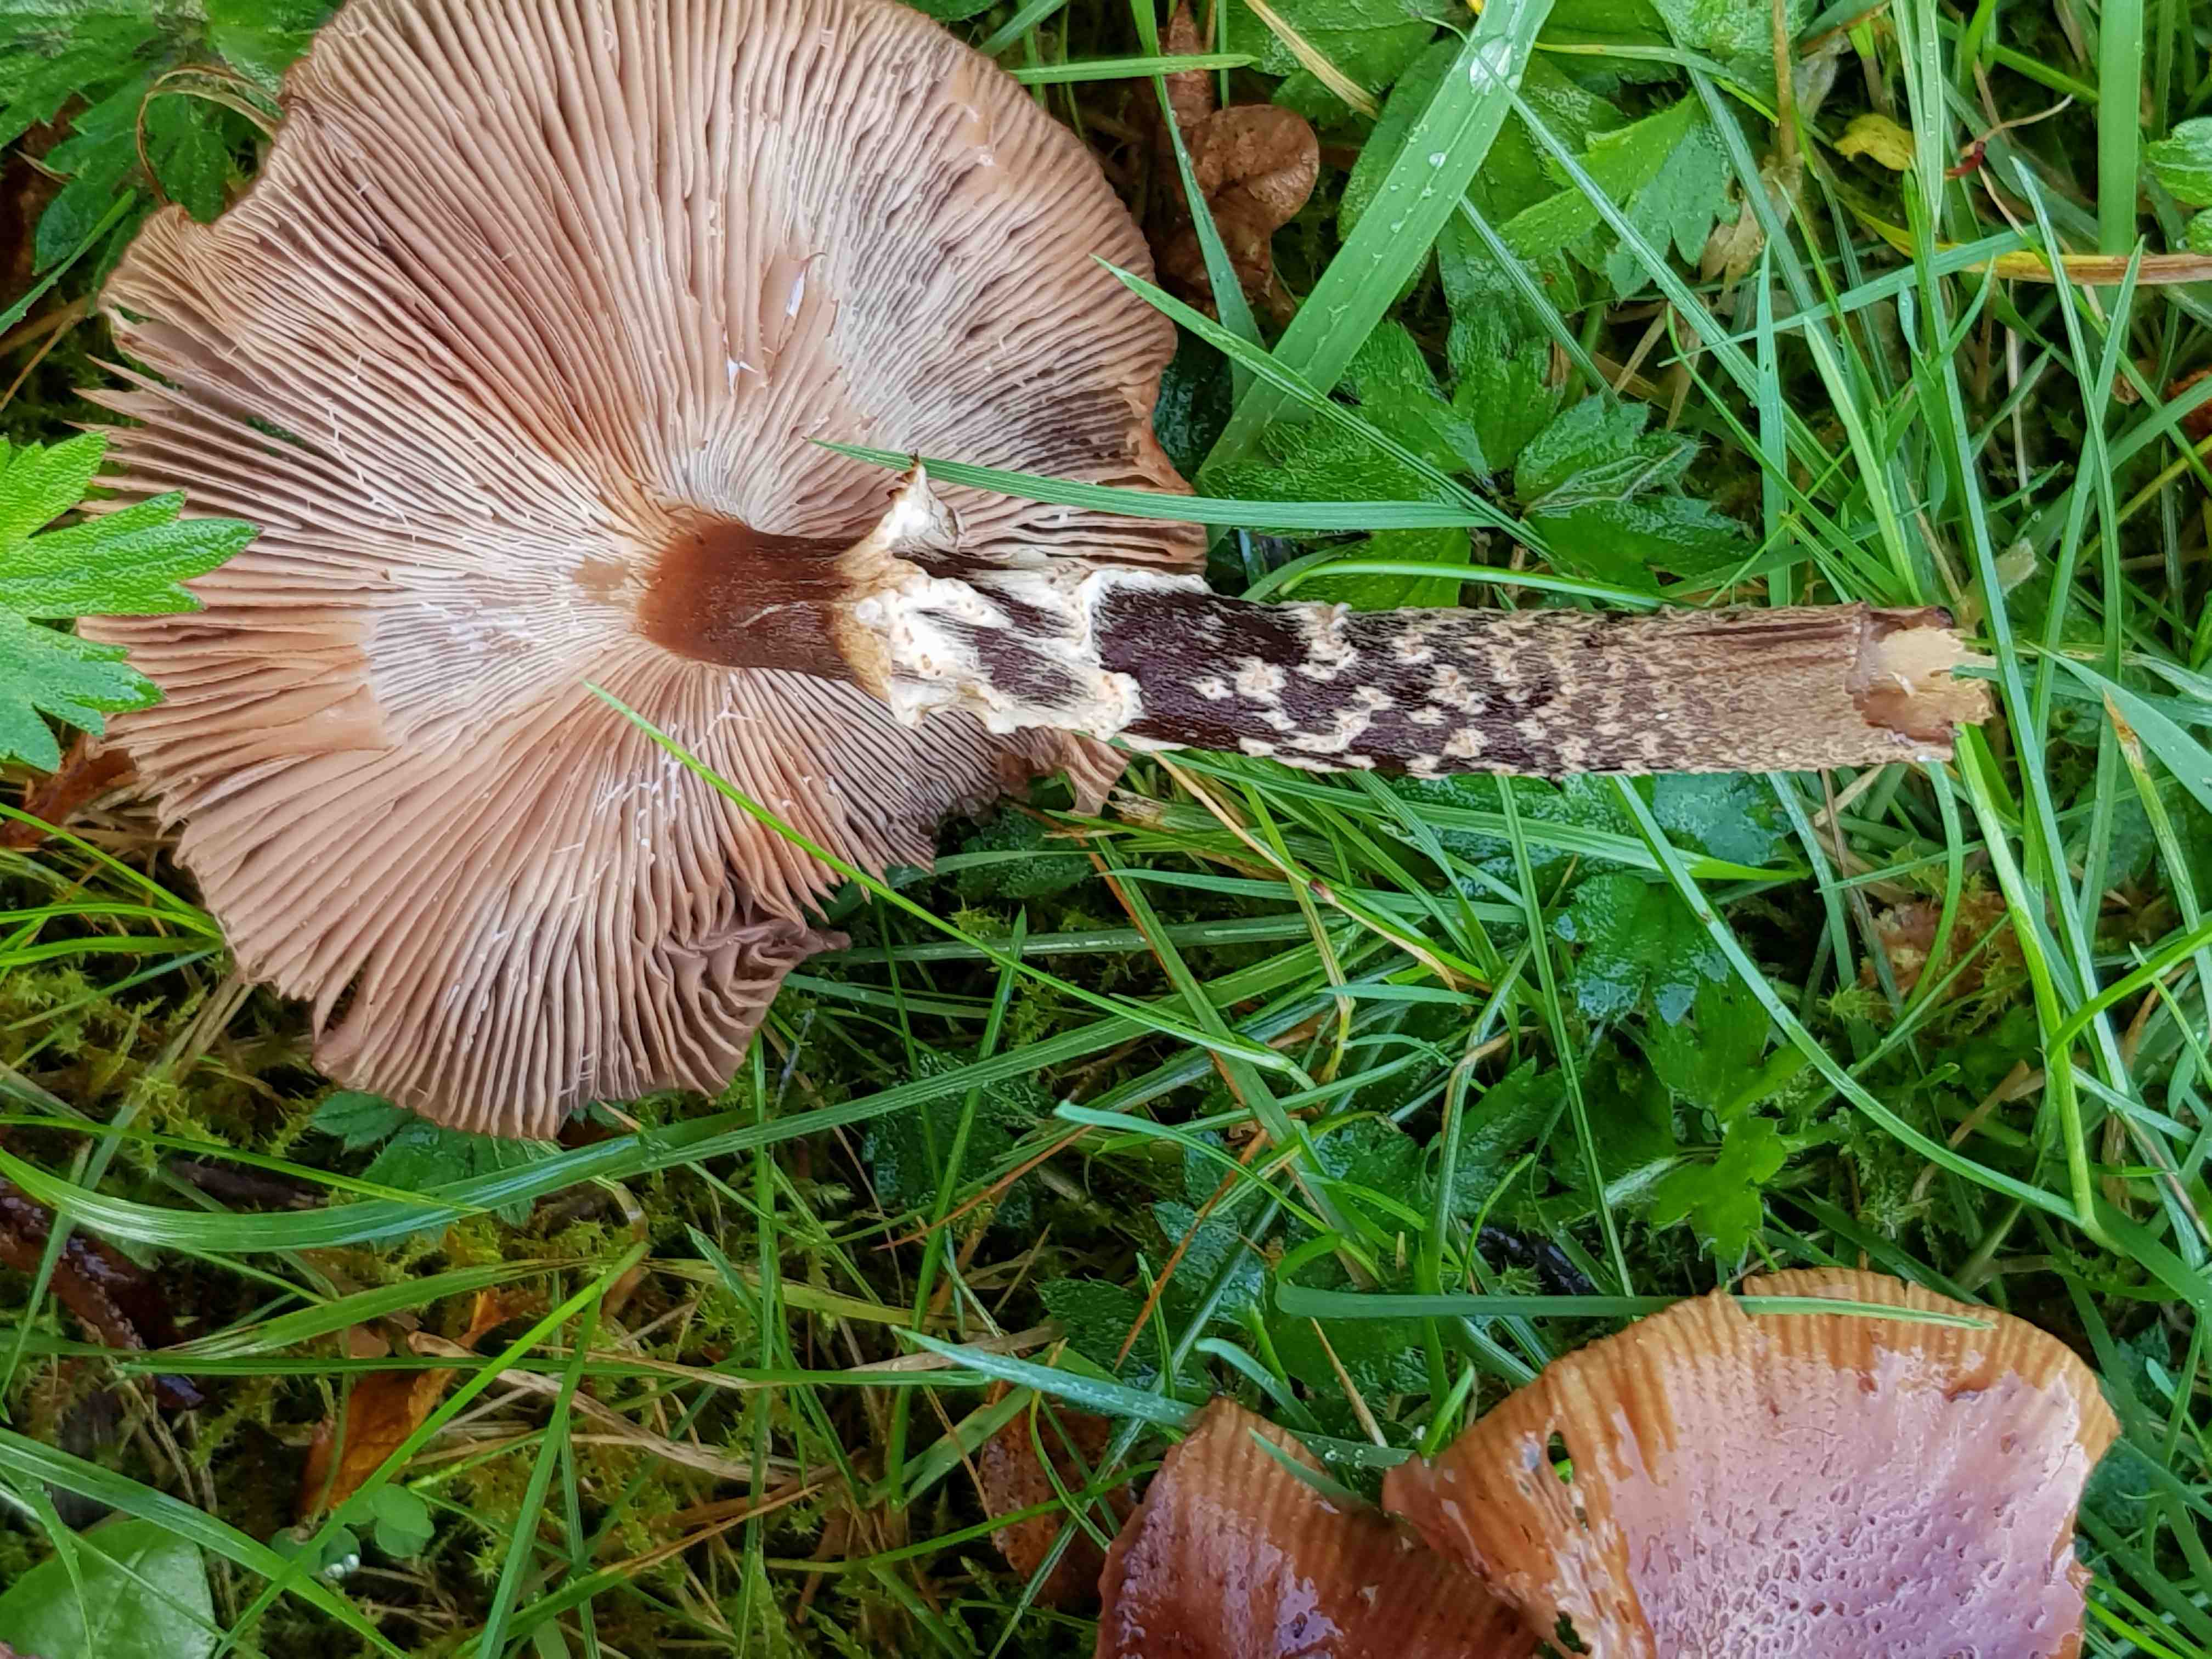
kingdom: Fungi
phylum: Basidiomycota
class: Agaricomycetes
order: Agaricales
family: Physalacriaceae
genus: Armillaria
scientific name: Armillaria ostoyae
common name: mørk honningsvamp
